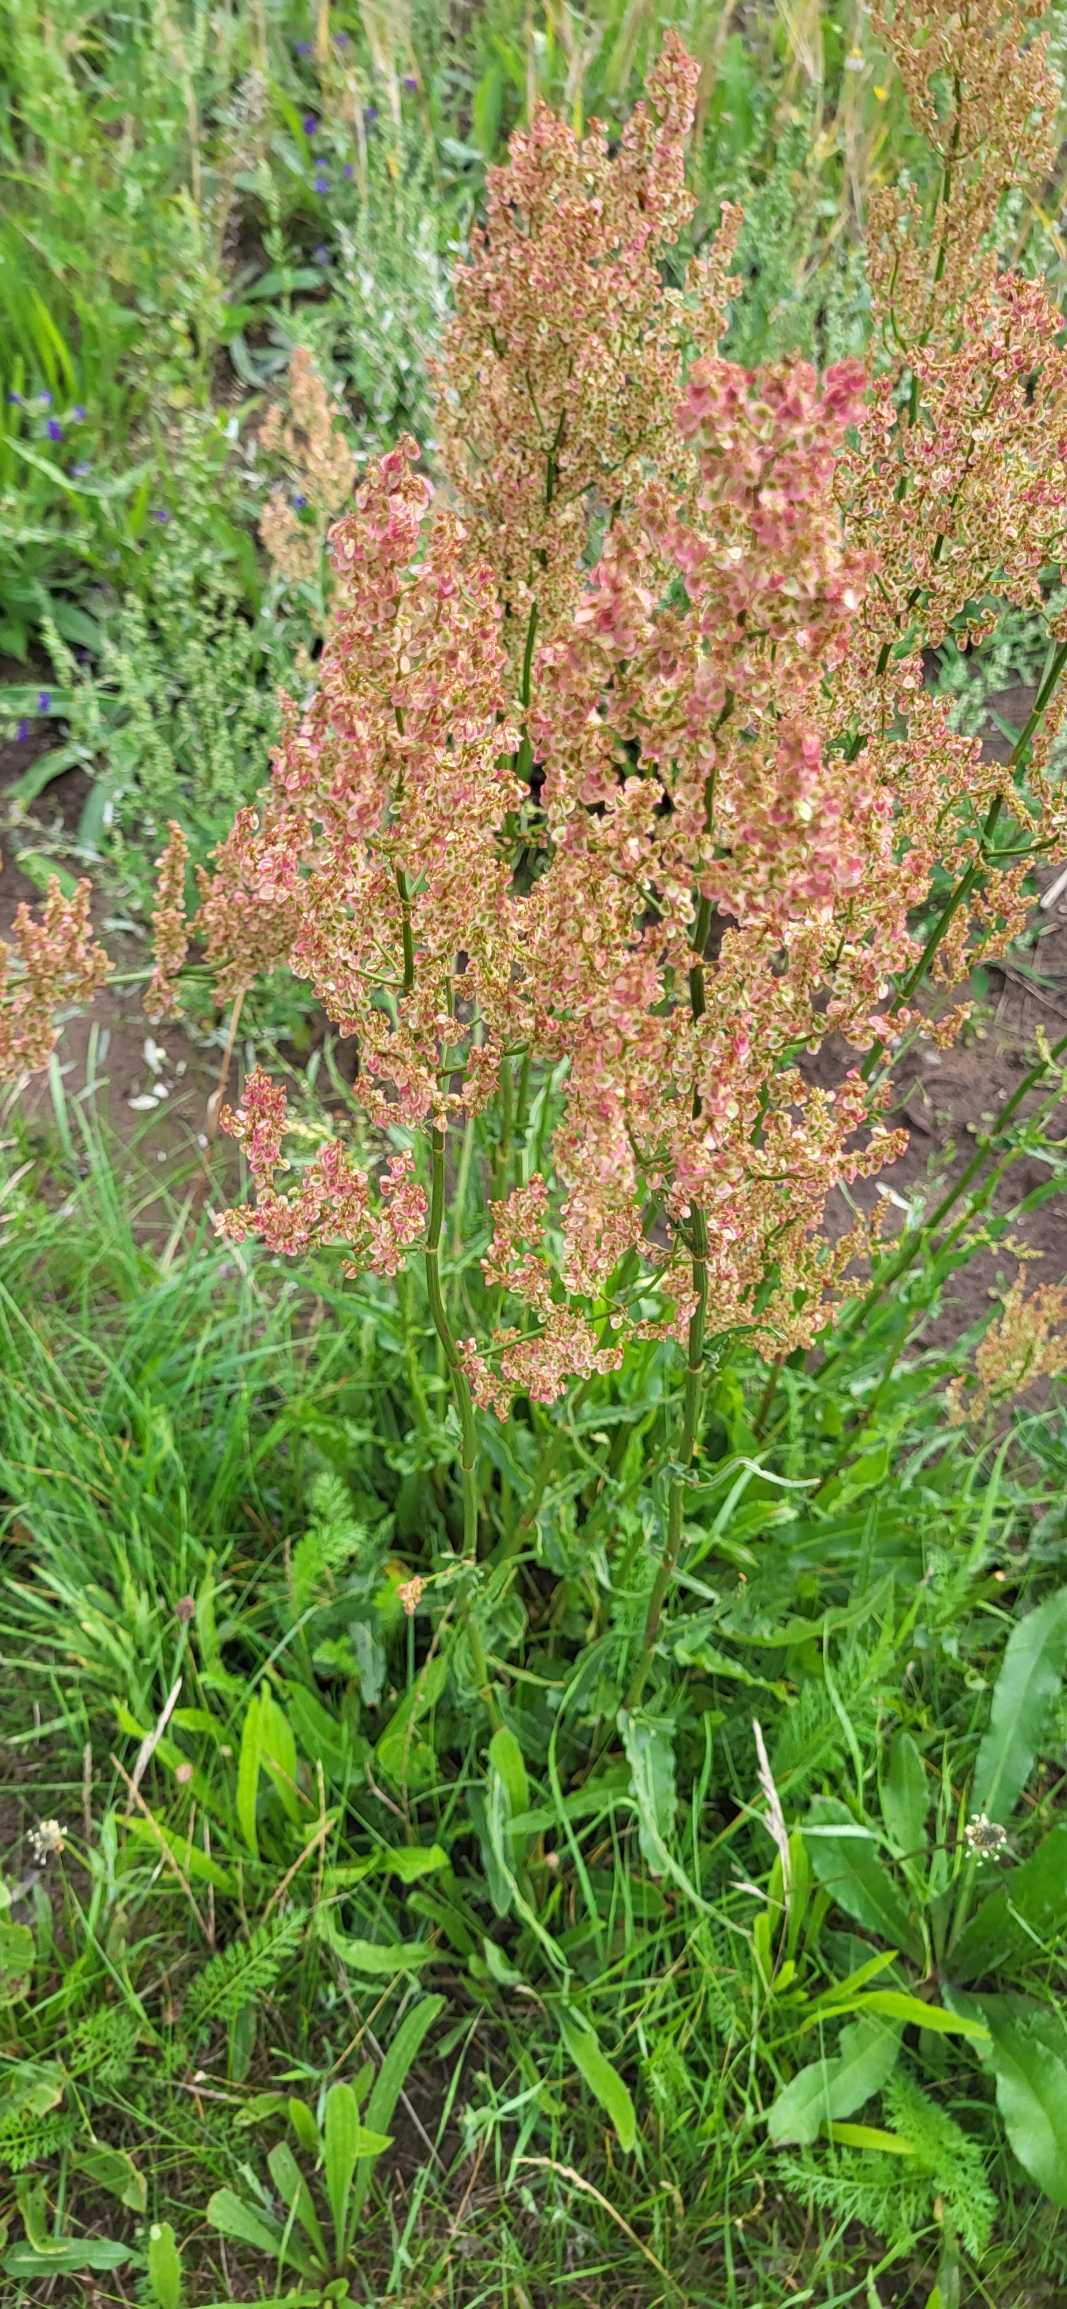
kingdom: Plantae
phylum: Tracheophyta
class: Magnoliopsida
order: Caryophyllales
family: Polygonaceae
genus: Rumex
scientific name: Rumex thyrsiflorus
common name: Dusk-syre
